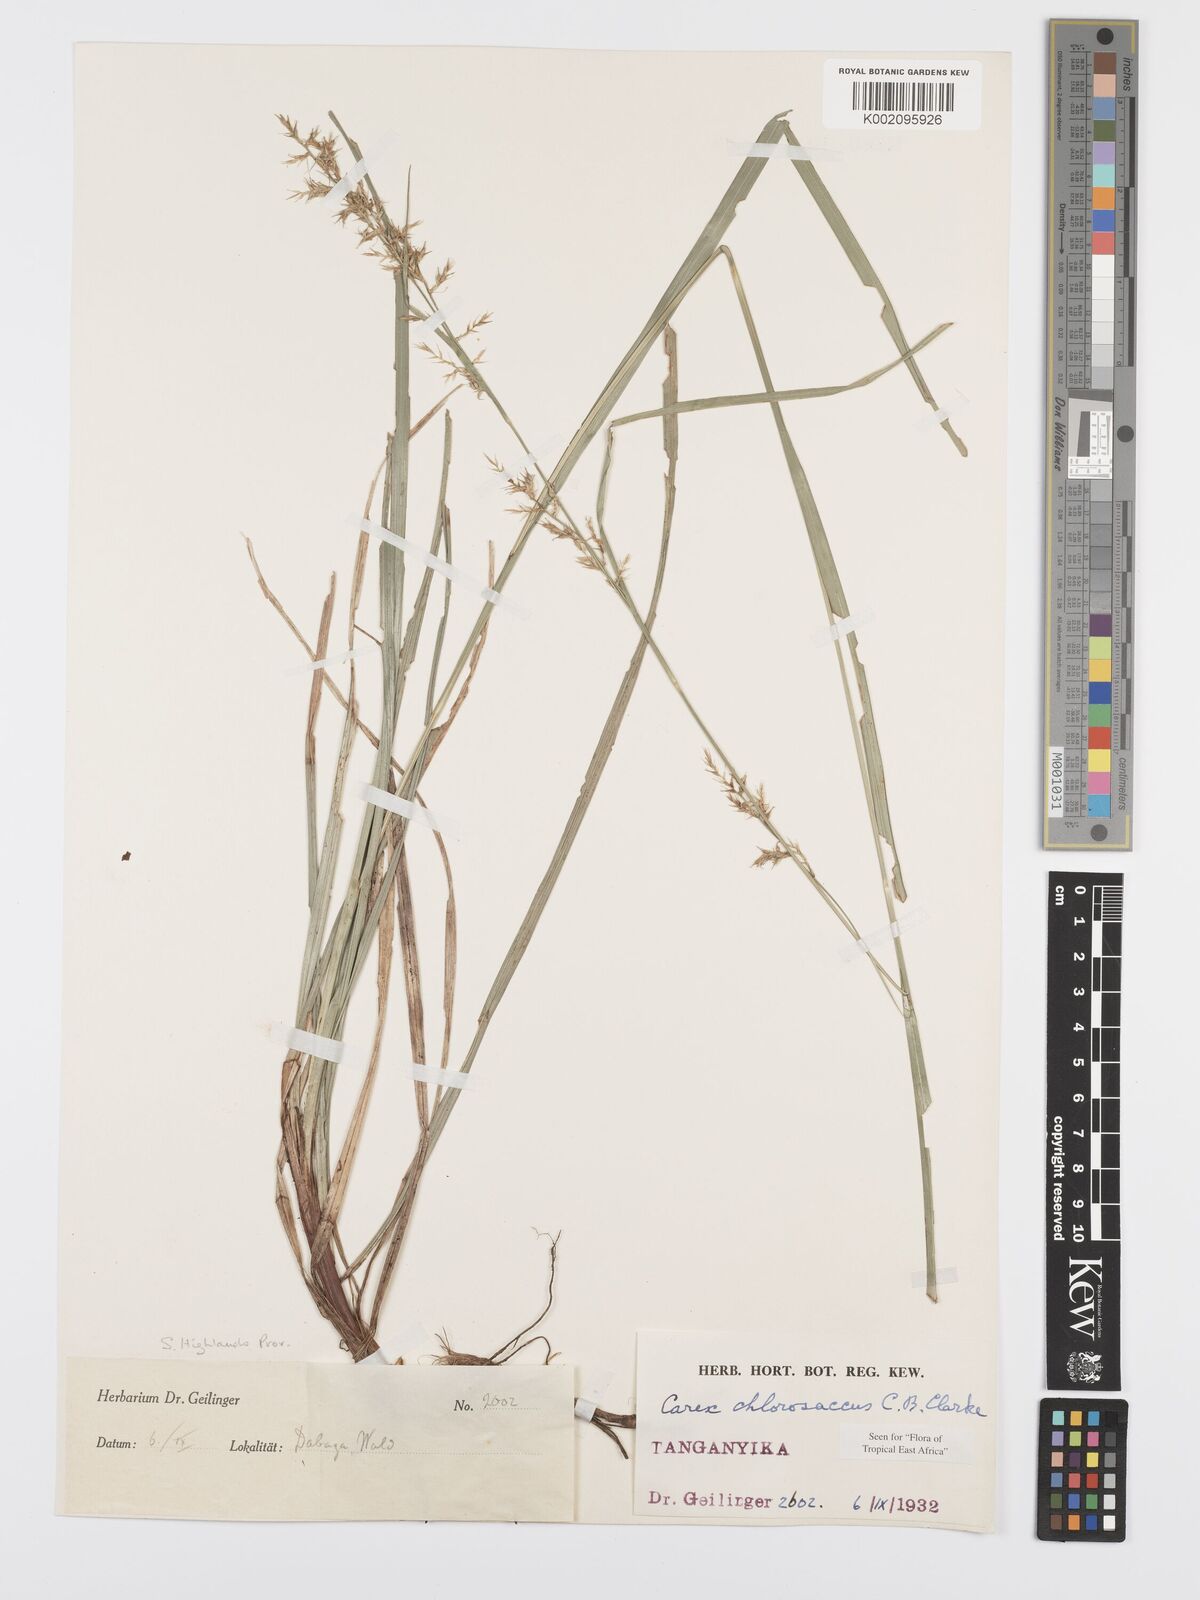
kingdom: Plantae
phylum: Tracheophyta
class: Liliopsida
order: Poales
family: Cyperaceae
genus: Carex
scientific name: Carex chlorosaccus
